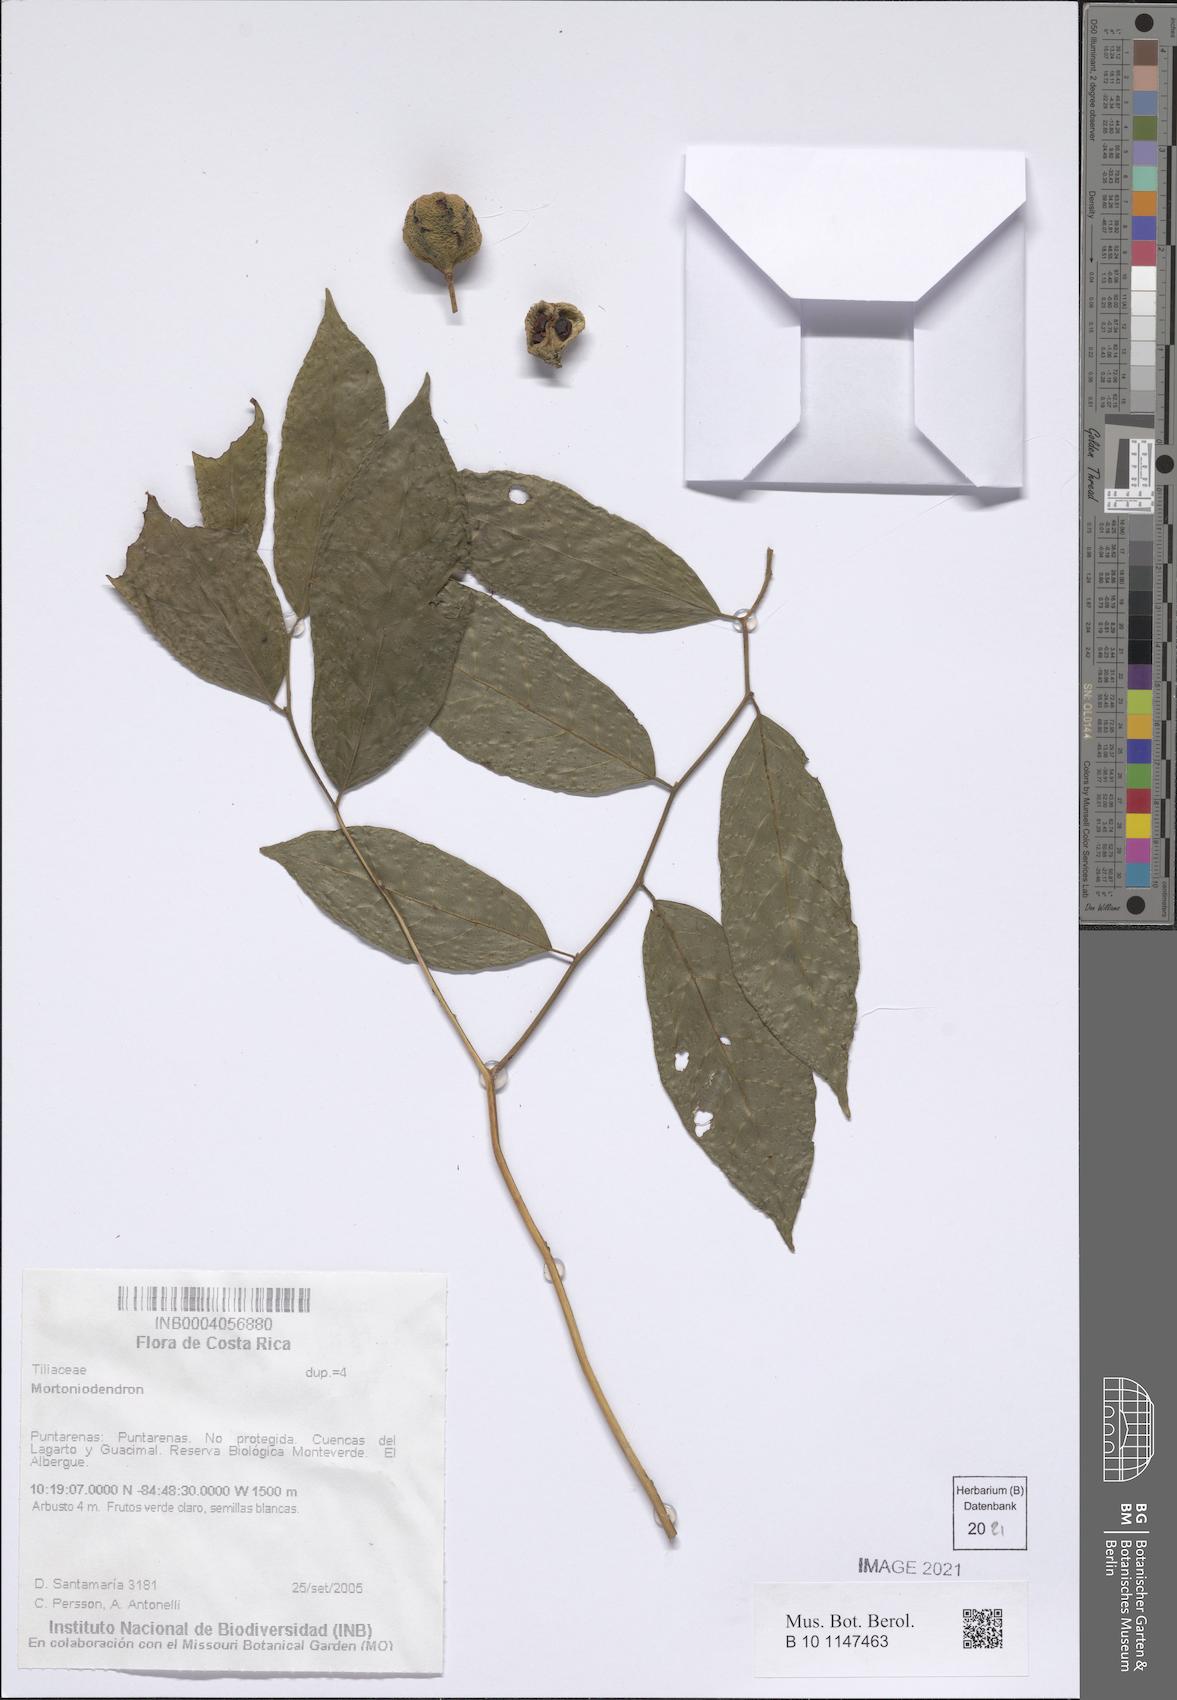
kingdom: Plantae
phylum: Tracheophyta
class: Magnoliopsida
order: Malvales
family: Malvaceae
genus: Mortoniodendron
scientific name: Mortoniodendron
